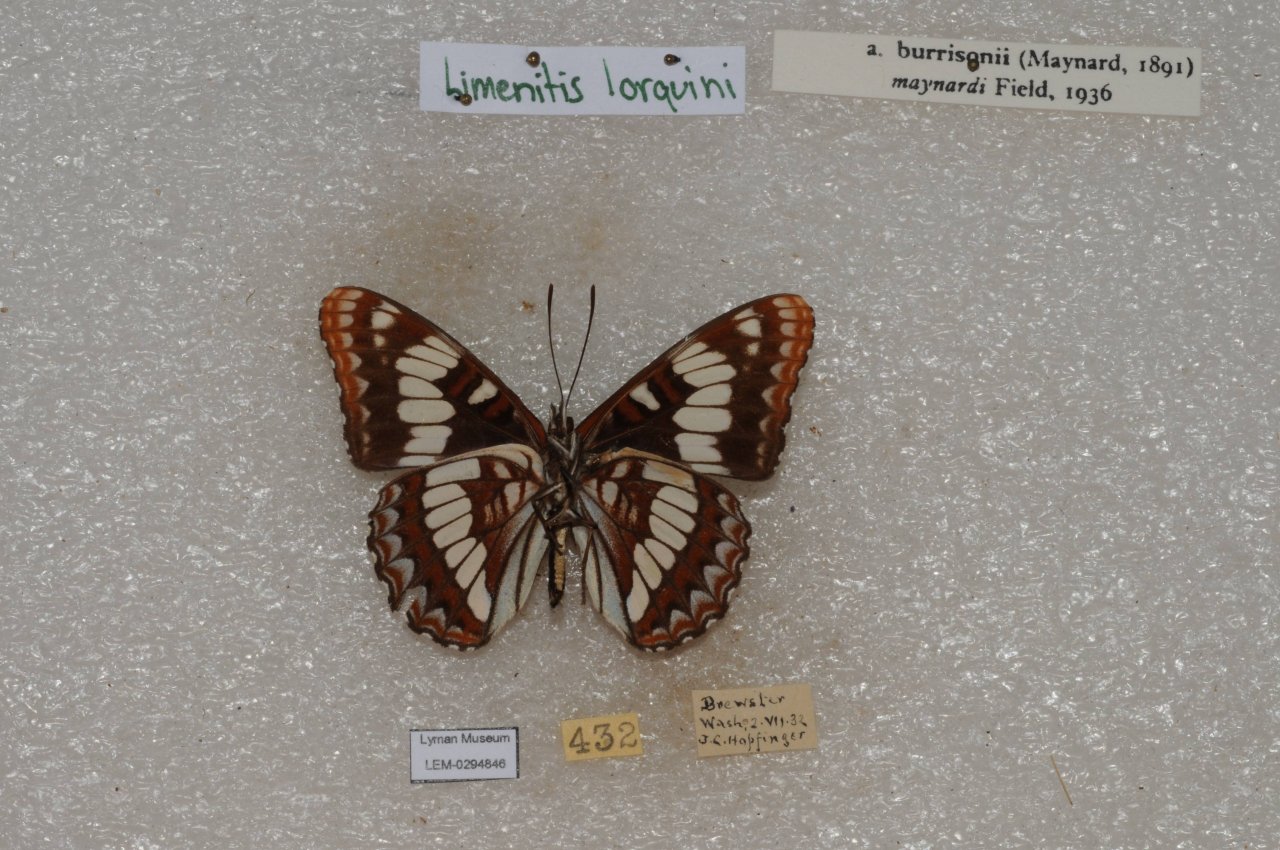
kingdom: Animalia
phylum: Arthropoda
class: Insecta
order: Lepidoptera
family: Nymphalidae
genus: Limenitis
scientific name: Limenitis lorquini
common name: Lorquin's Admiral
